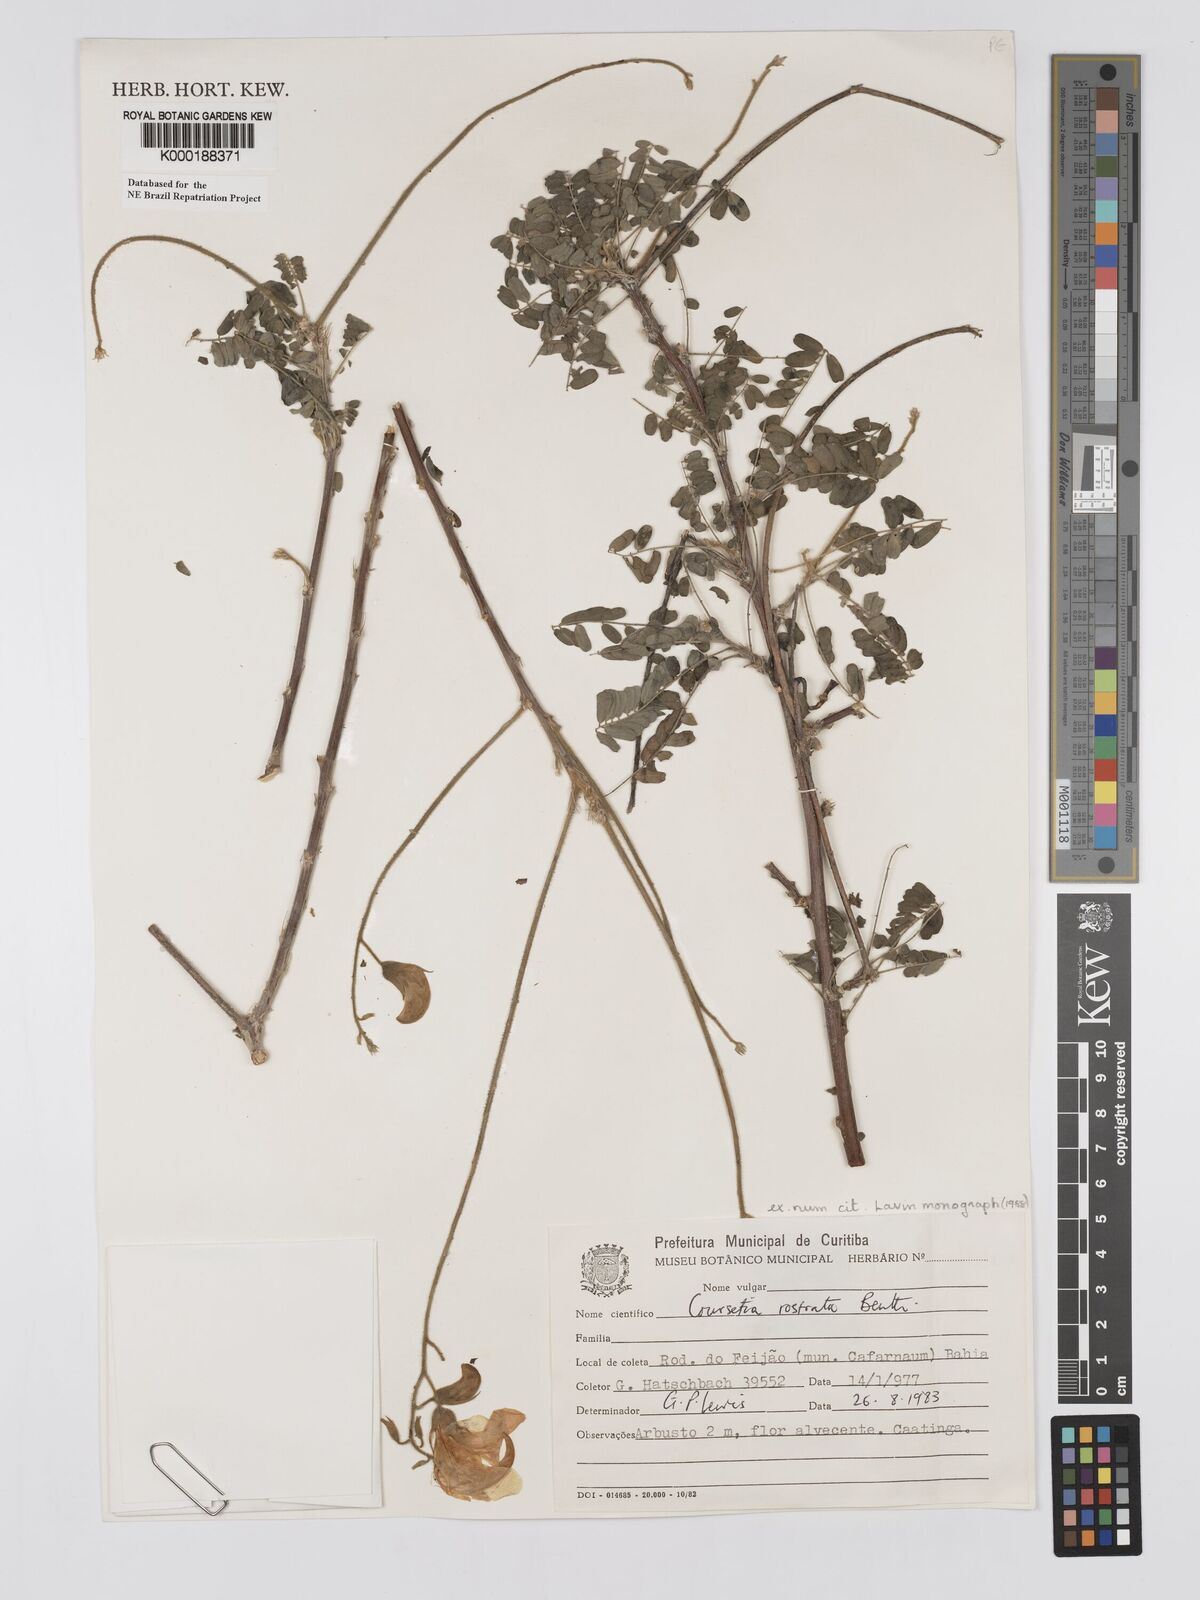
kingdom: Plantae
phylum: Tracheophyta
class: Magnoliopsida
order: Fabales
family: Fabaceae
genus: Coursetia
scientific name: Coursetia rostrata
